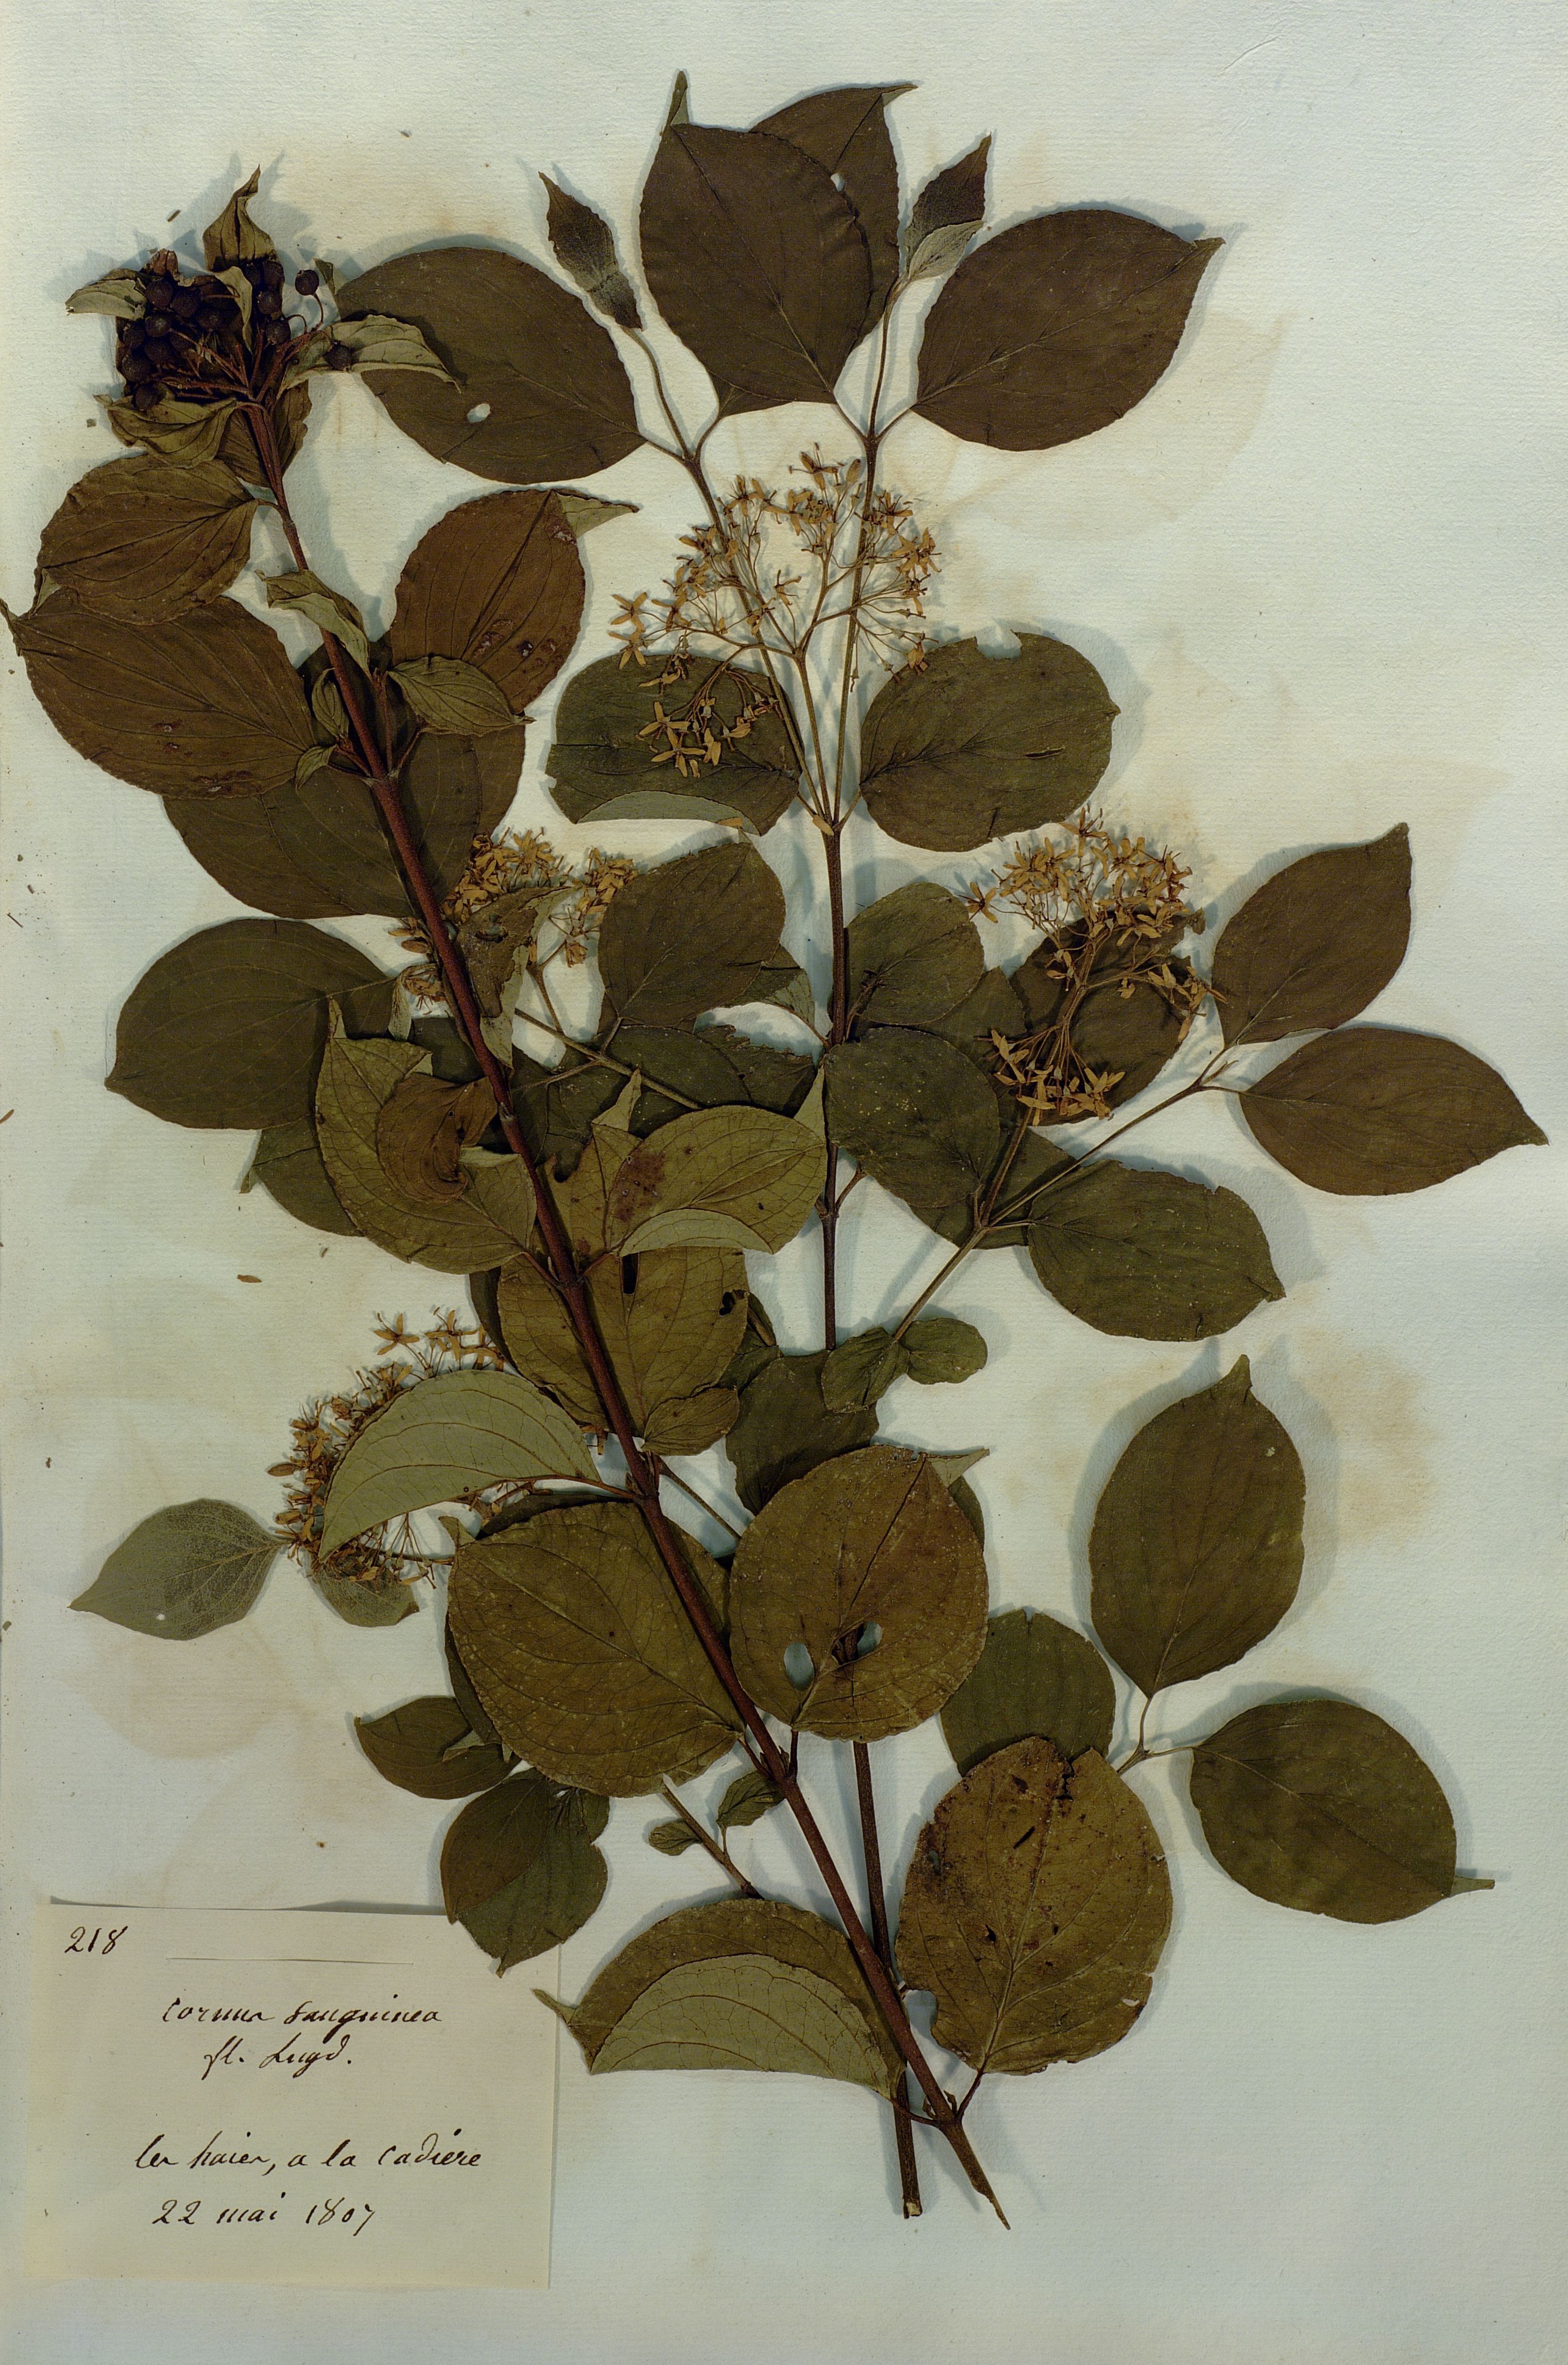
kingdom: Plantae
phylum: Tracheophyta
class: Magnoliopsida
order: Cornales
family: Cornaceae
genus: Cornus
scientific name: Cornus sanguinea
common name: Dogwood
